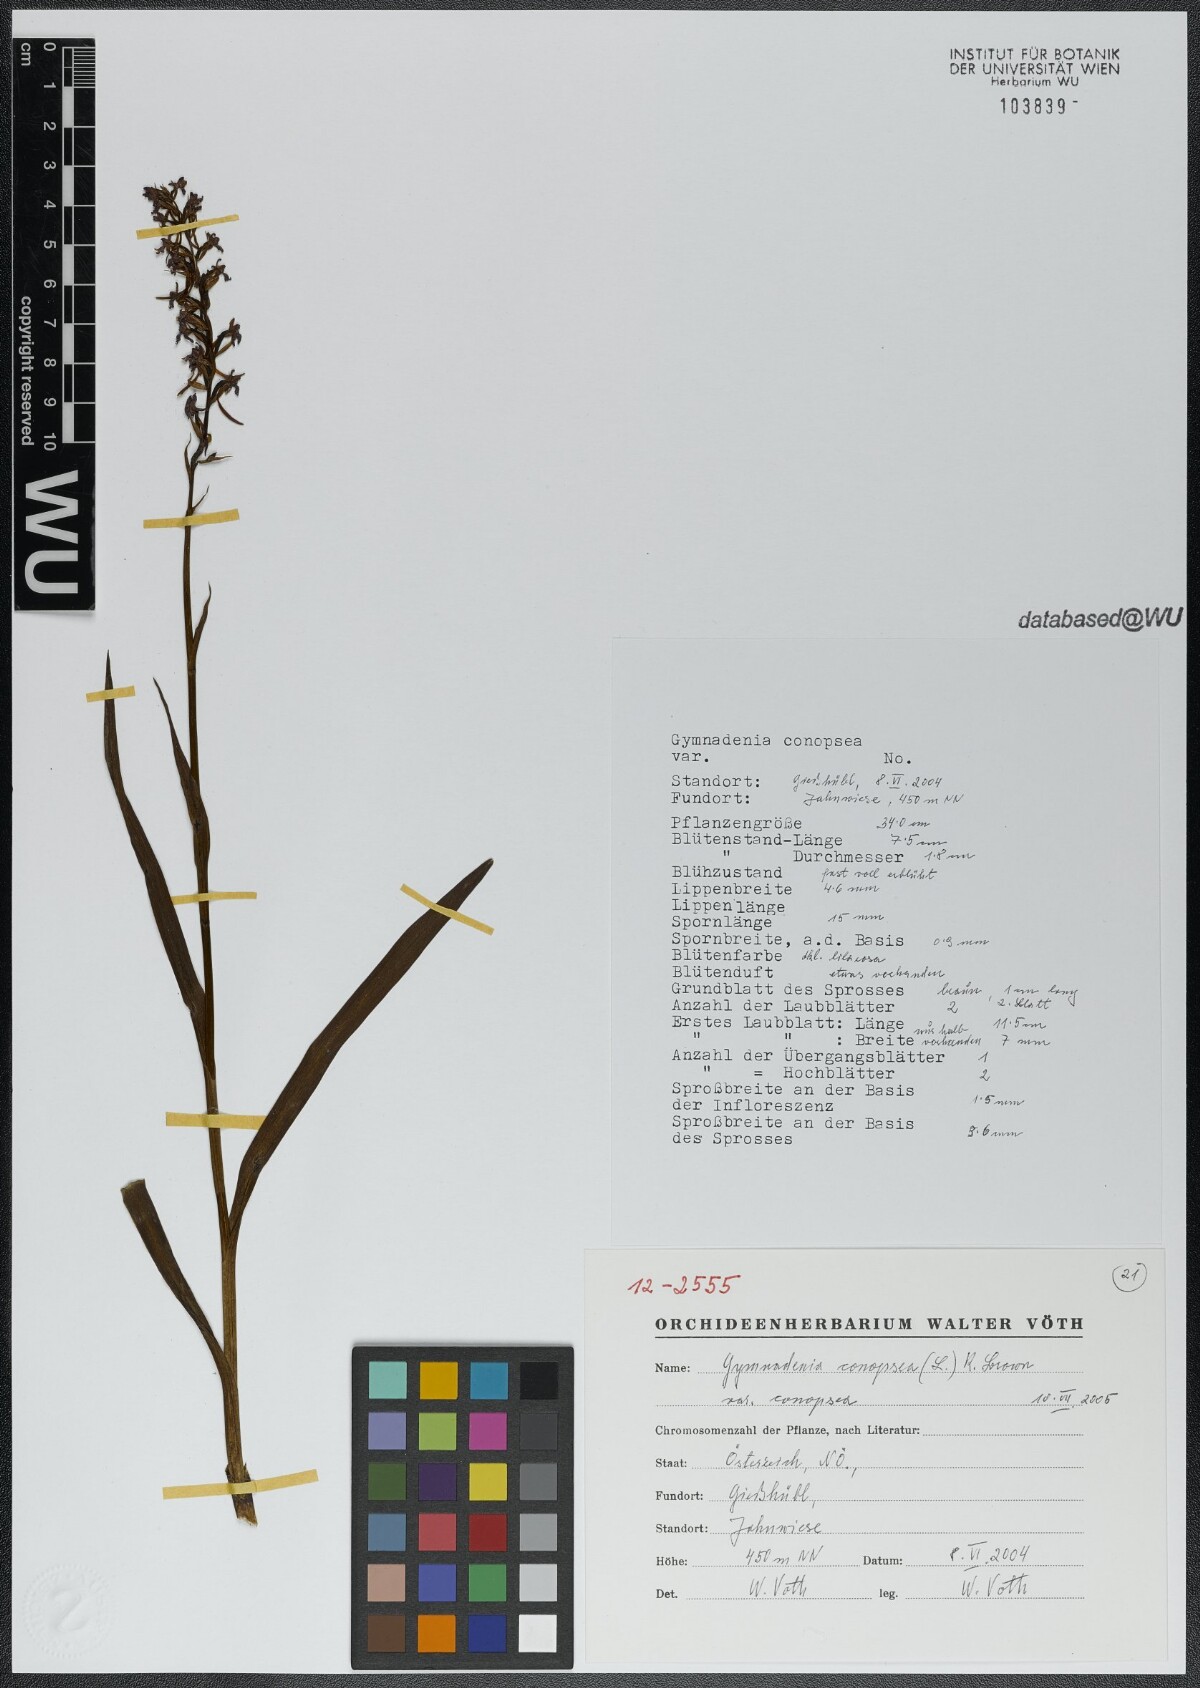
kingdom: Plantae
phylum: Tracheophyta
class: Liliopsida
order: Asparagales
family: Orchidaceae
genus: Gymnadenia
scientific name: Gymnadenia conopsea
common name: Fragrant orchid
